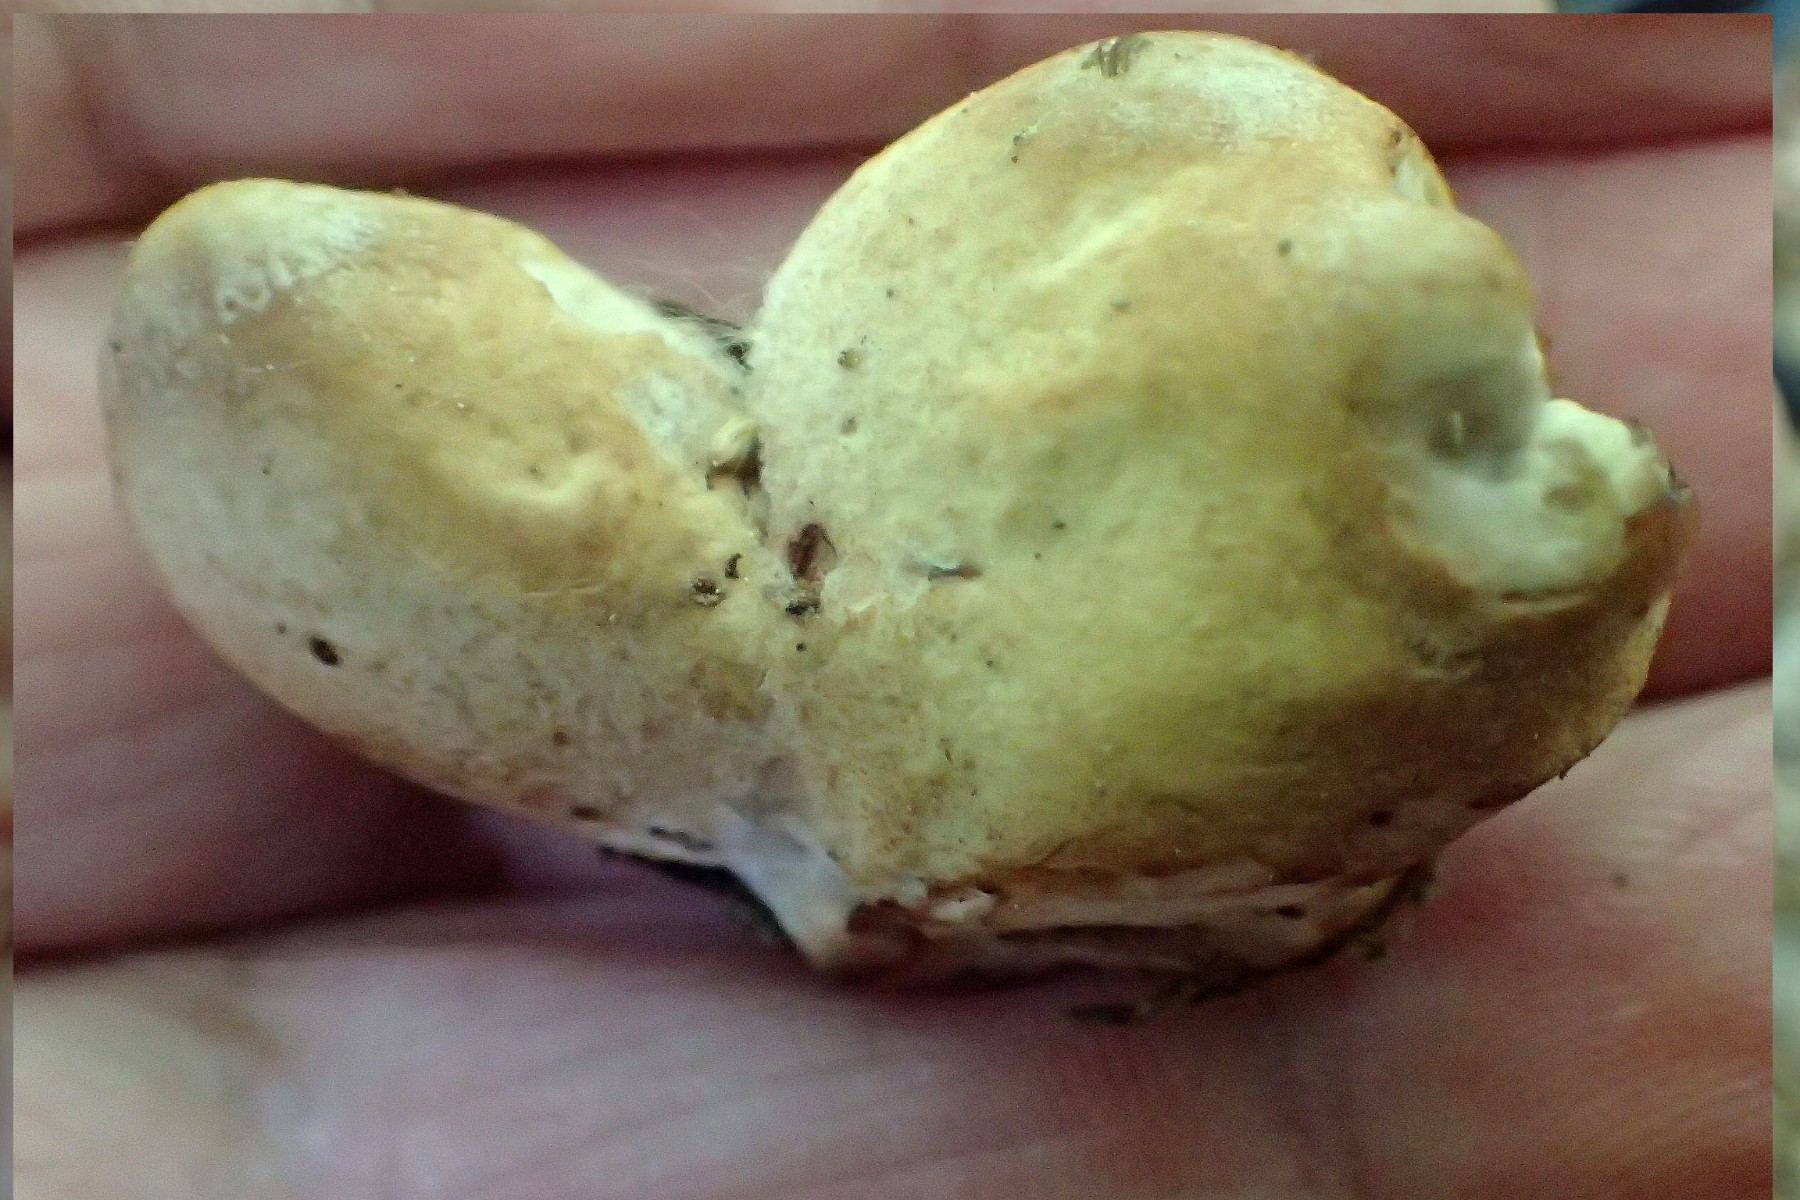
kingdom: Fungi
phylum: Ascomycota
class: Sordariomycetes
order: Xylariales
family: Xylariaceae
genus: Xylaria
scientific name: Xylaria polymorpha
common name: kølle-stødsvamp
